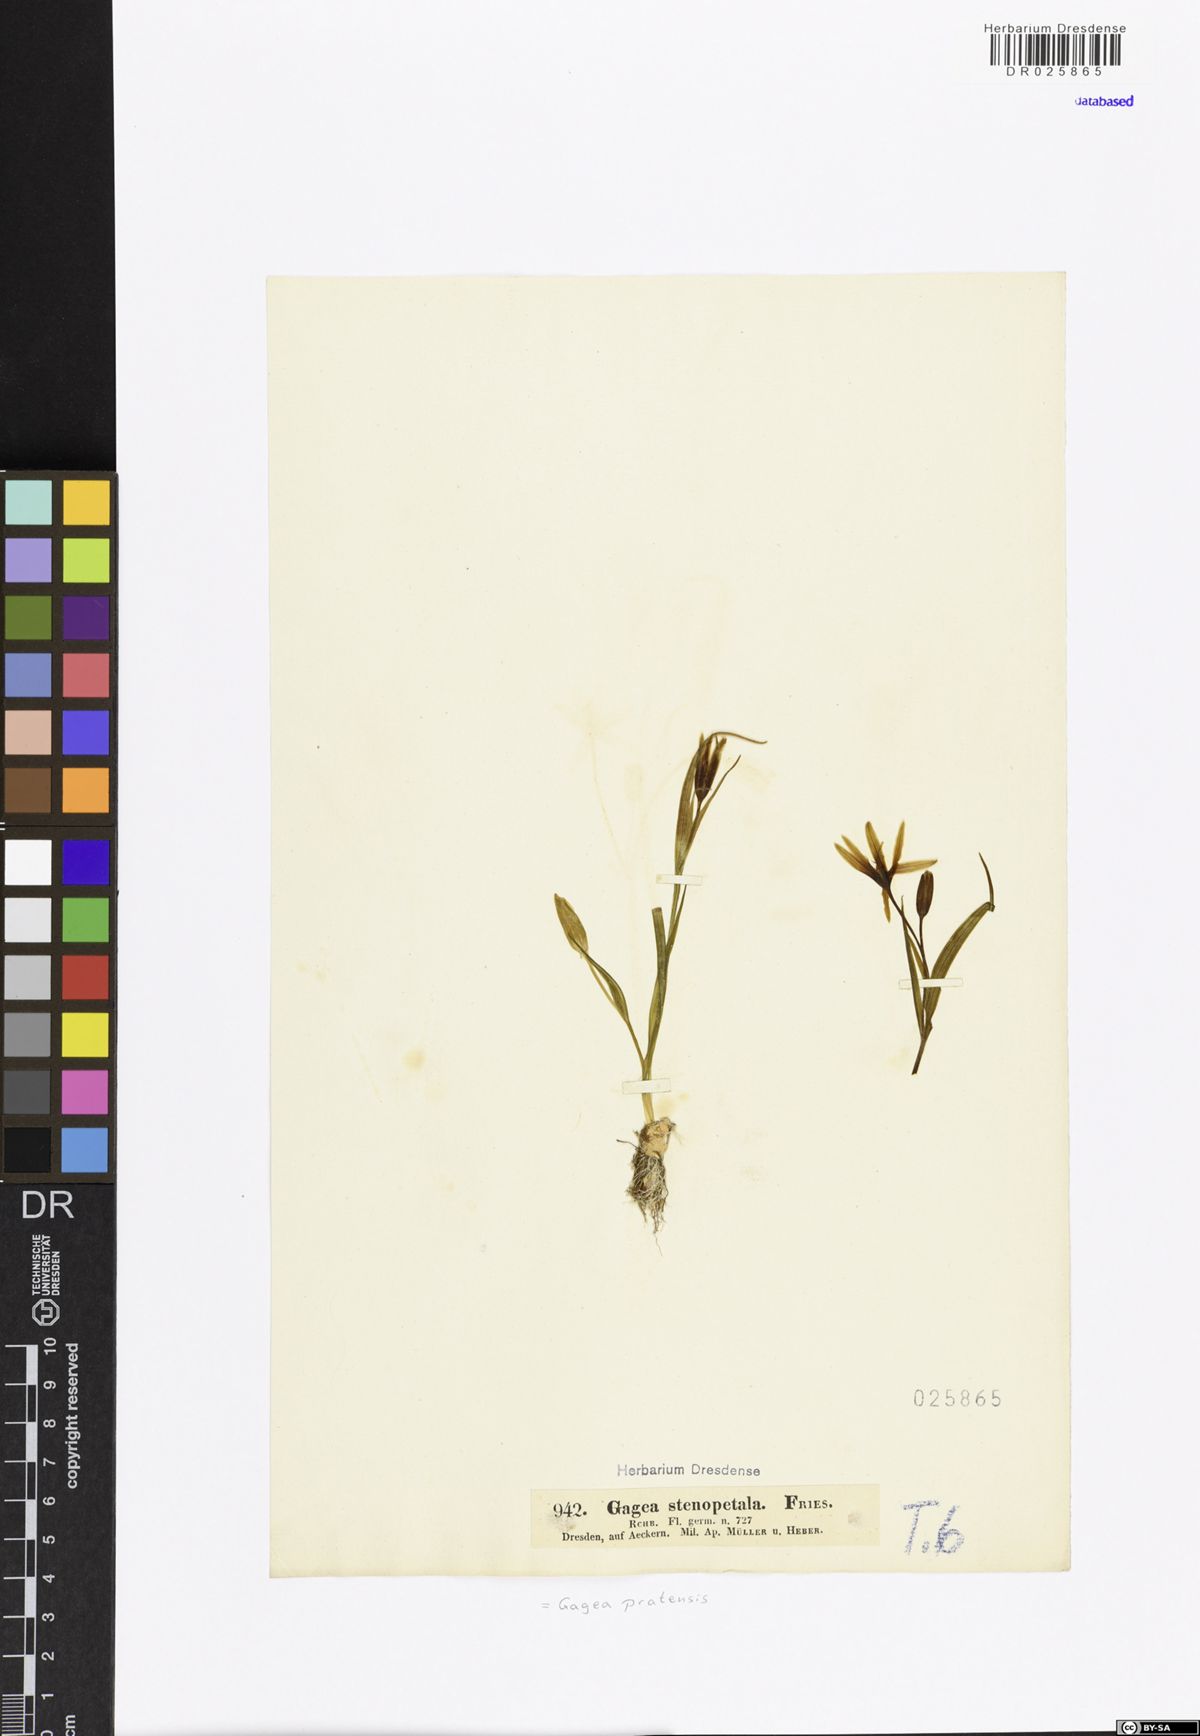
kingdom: Plantae
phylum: Tracheophyta
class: Liliopsida
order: Liliales
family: Liliaceae
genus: Gagea
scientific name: Gagea pratensis
